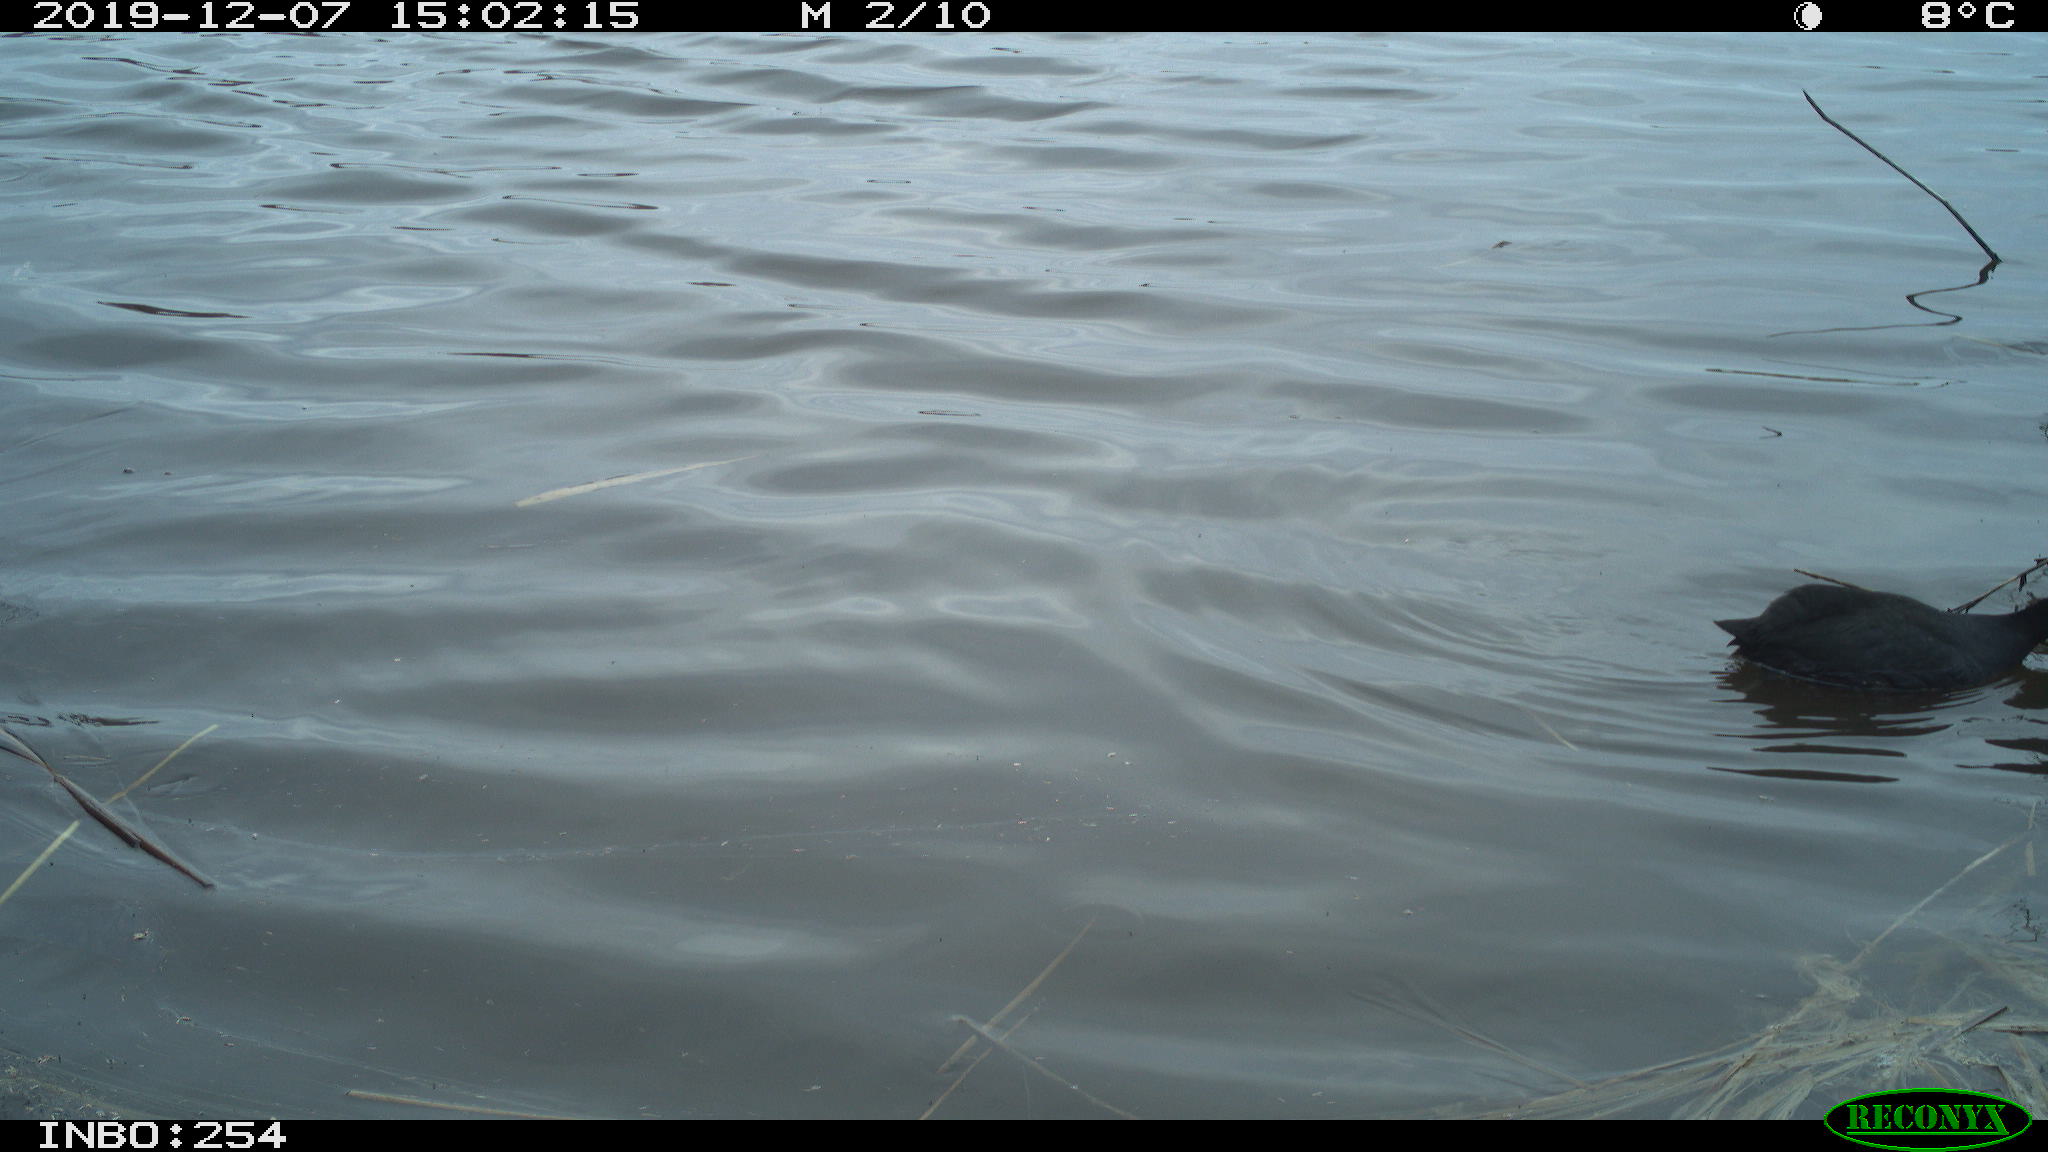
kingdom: Animalia
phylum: Chordata
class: Aves
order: Gruiformes
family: Rallidae
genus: Fulica
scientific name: Fulica atra
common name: Eurasian coot
